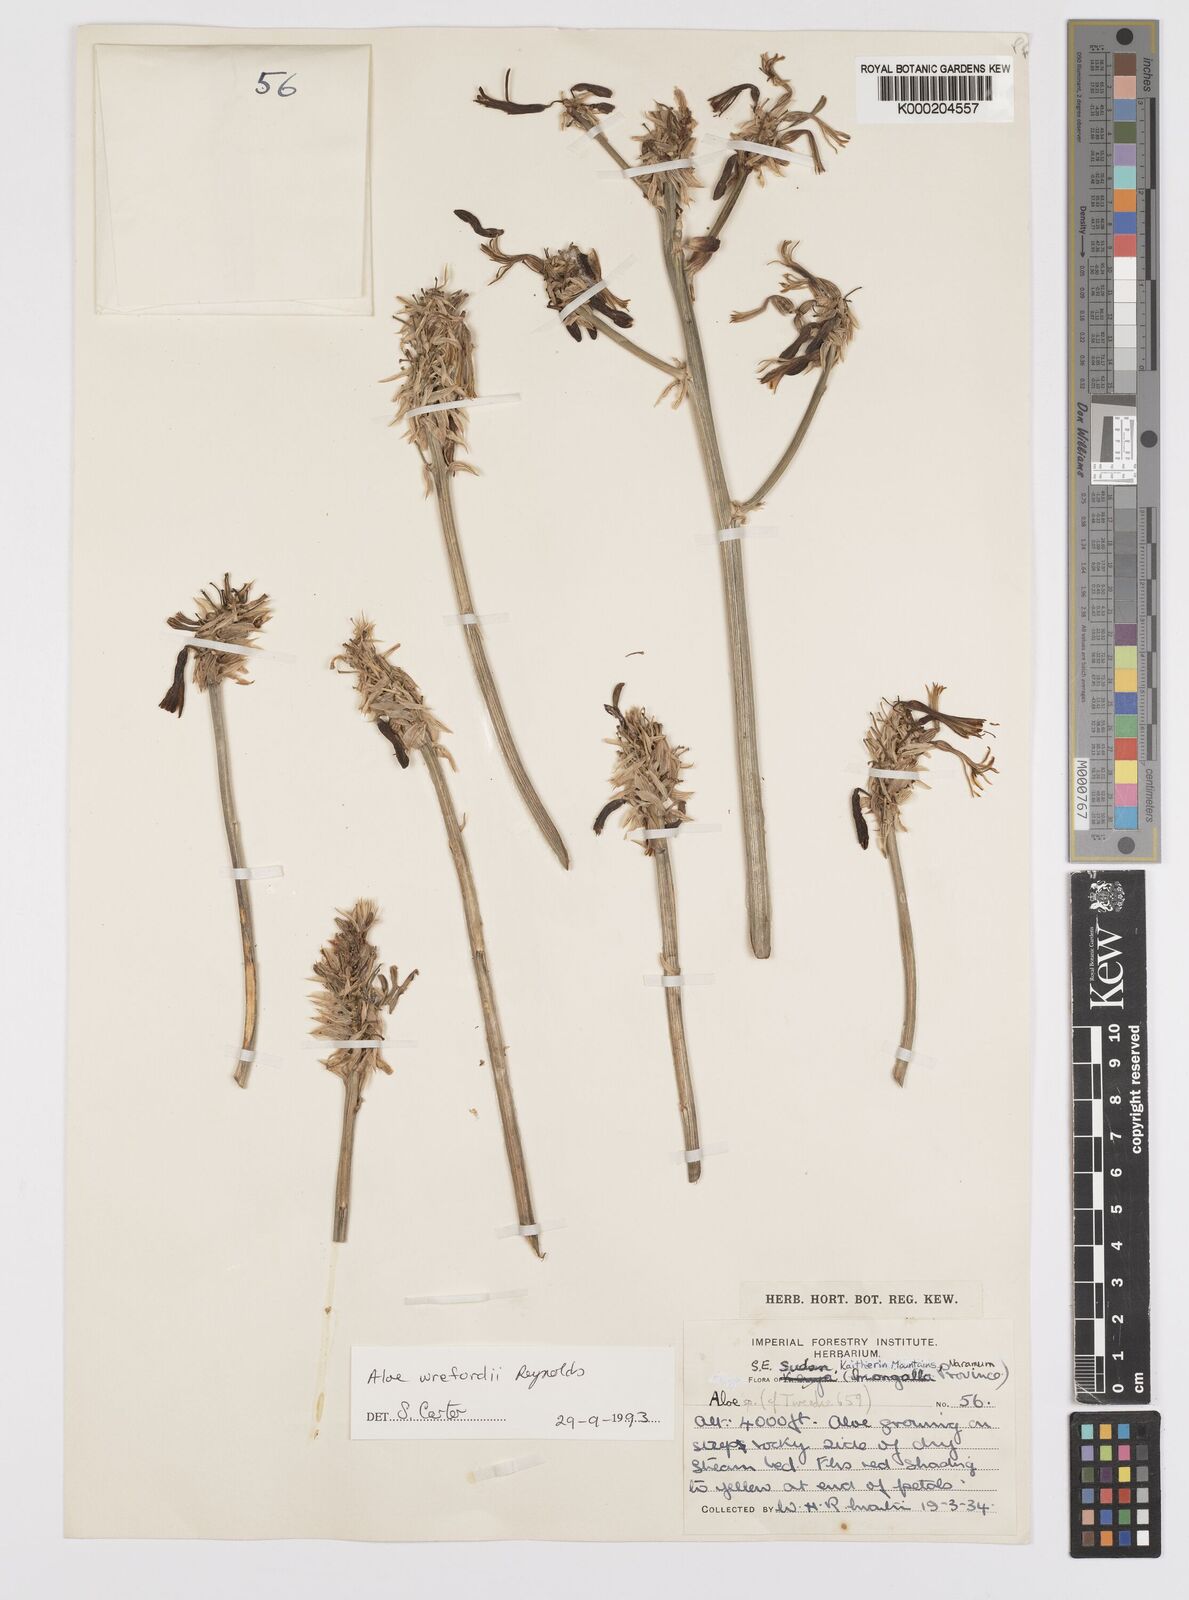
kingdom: Plantae
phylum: Tracheophyta
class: Liliopsida
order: Asparagales
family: Asphodelaceae
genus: Aloe
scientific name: Aloe wrefordii
